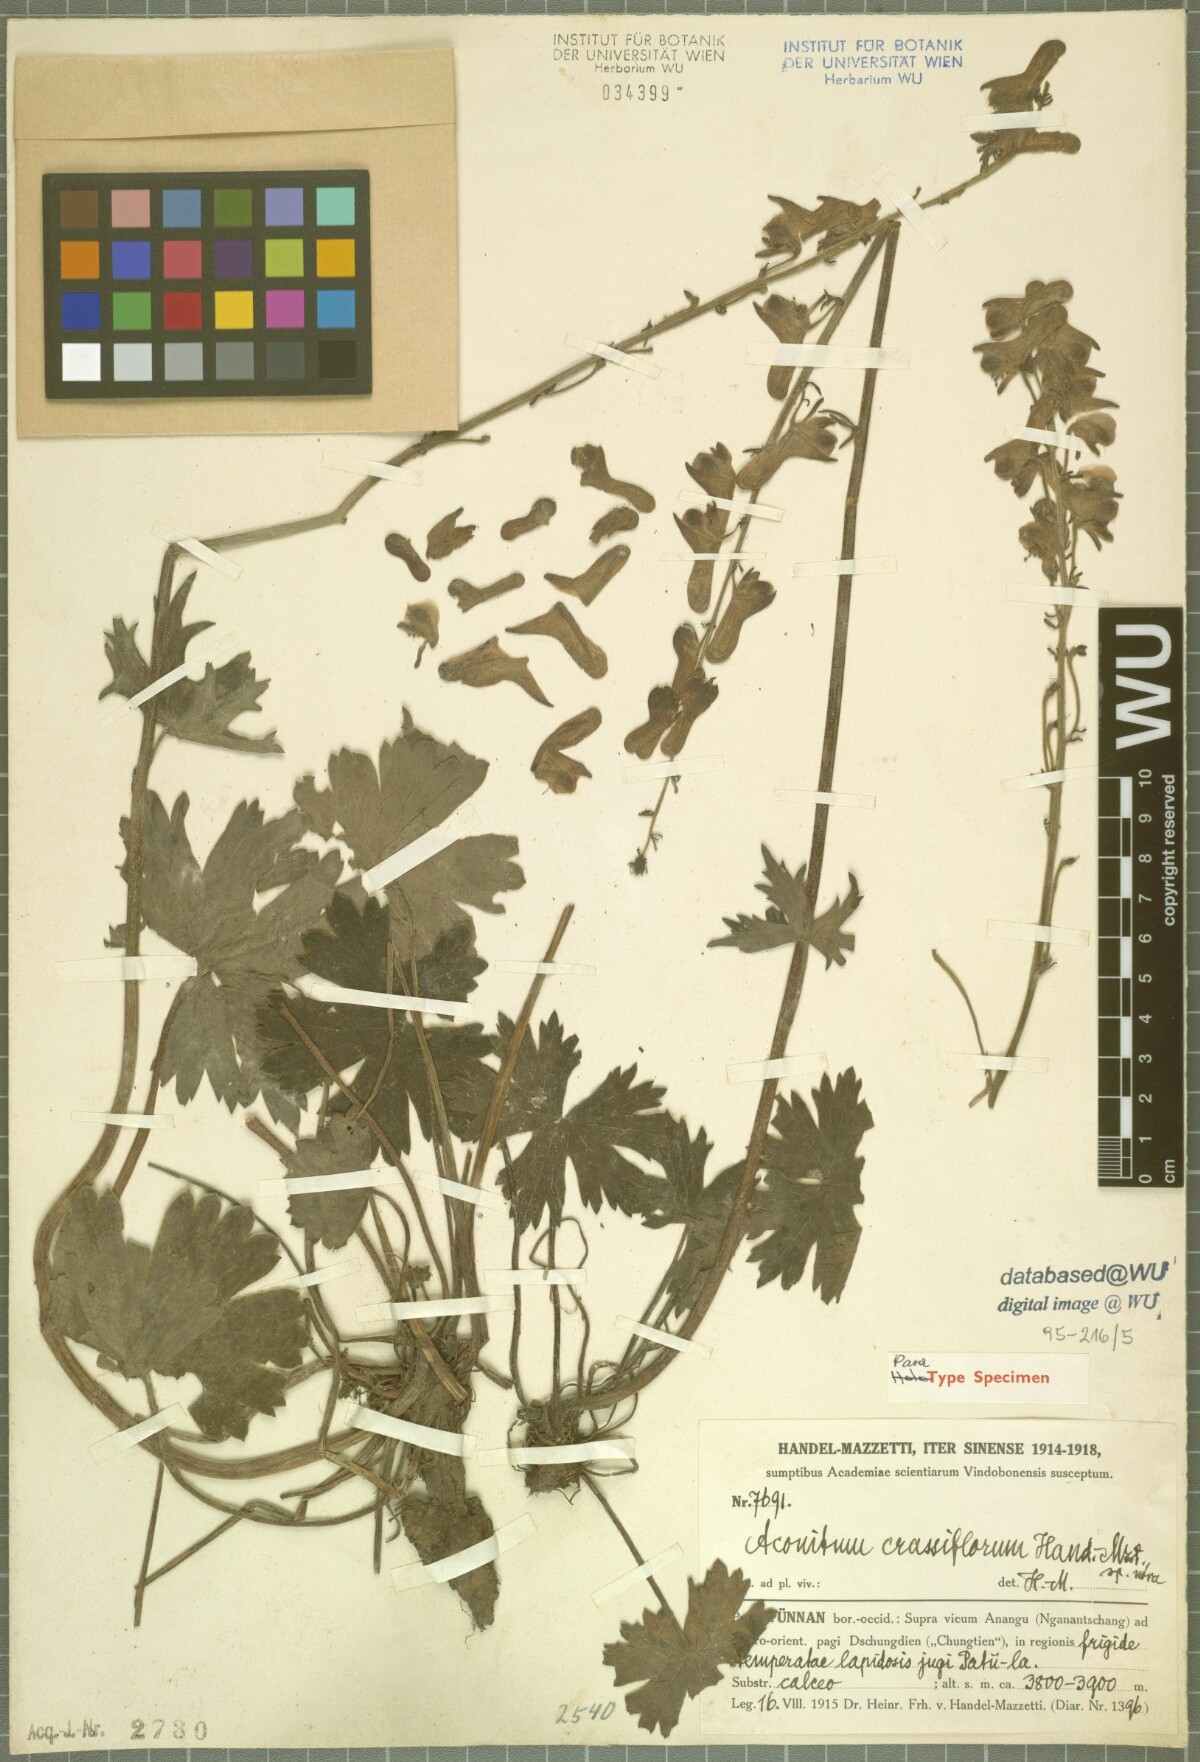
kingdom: Plantae
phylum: Tracheophyta
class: Magnoliopsida
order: Ranunculales
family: Ranunculaceae
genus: Aconitum
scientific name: Aconitum crassiflorum
